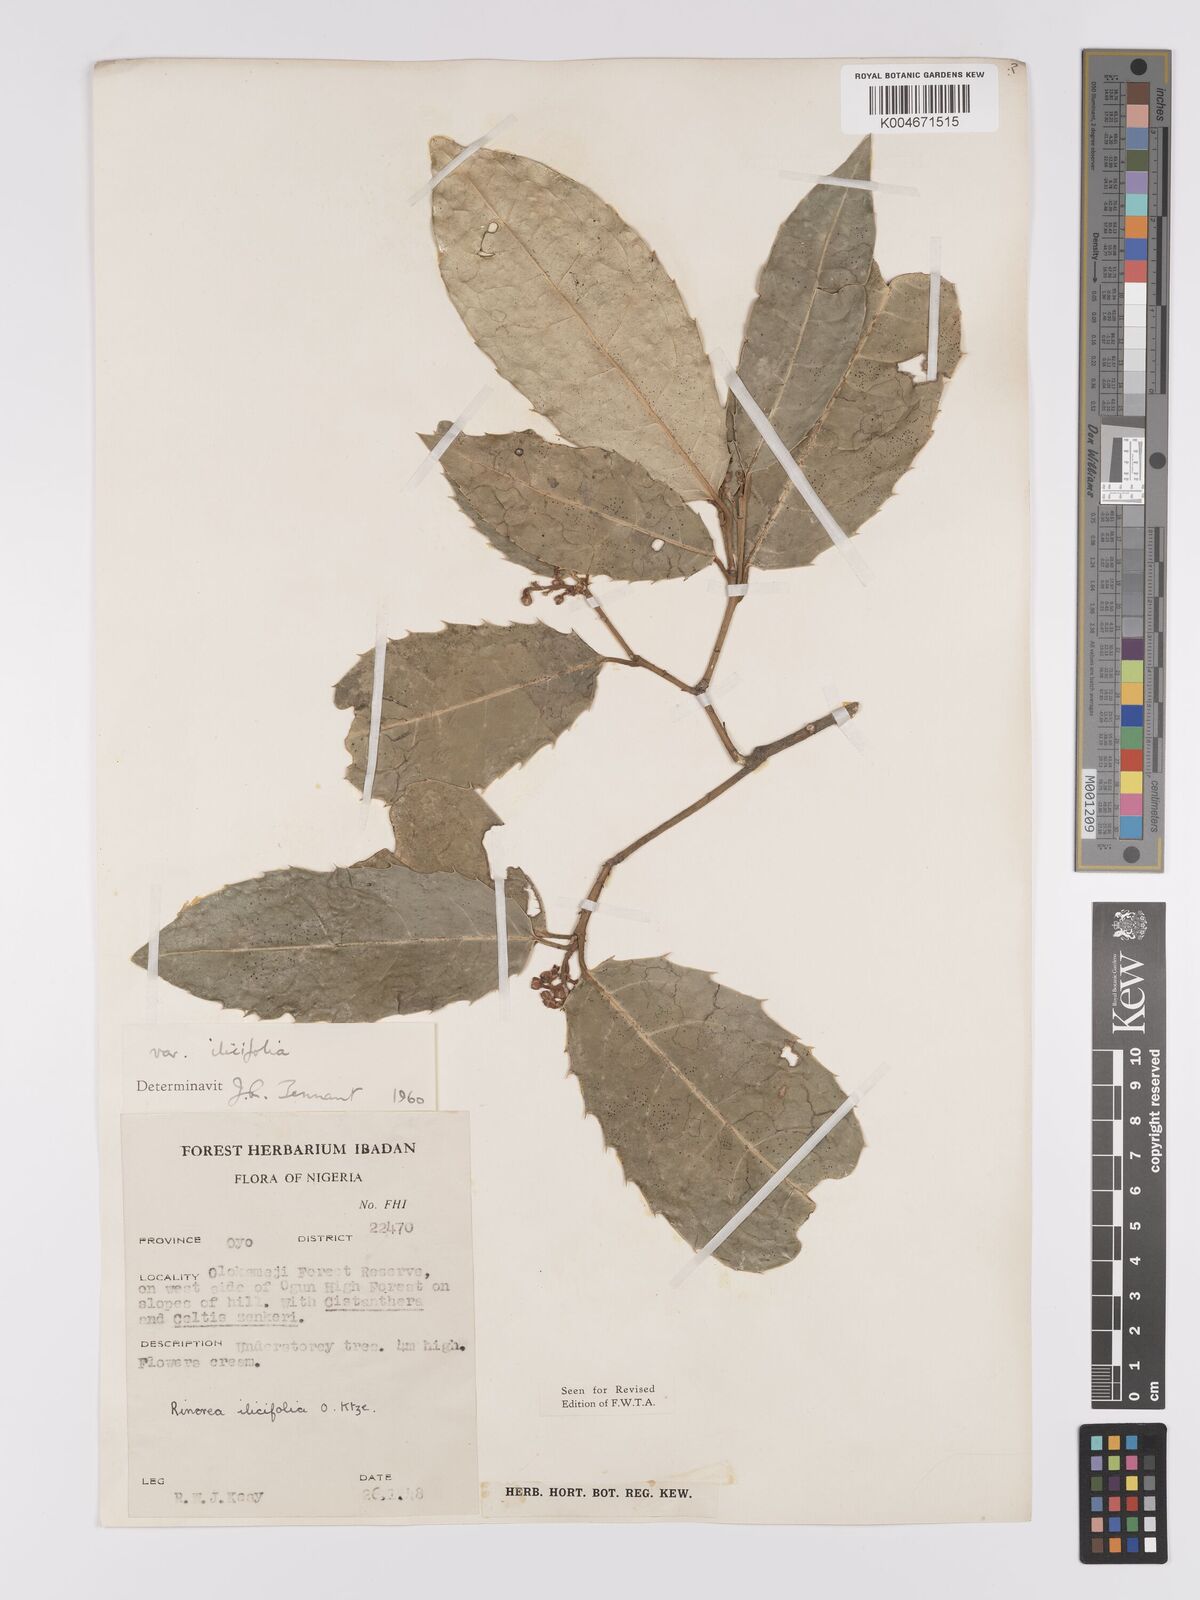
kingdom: Plantae
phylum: Tracheophyta
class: Magnoliopsida
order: Malpighiales
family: Violaceae
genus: Rinorea
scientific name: Rinorea ilicifolia
